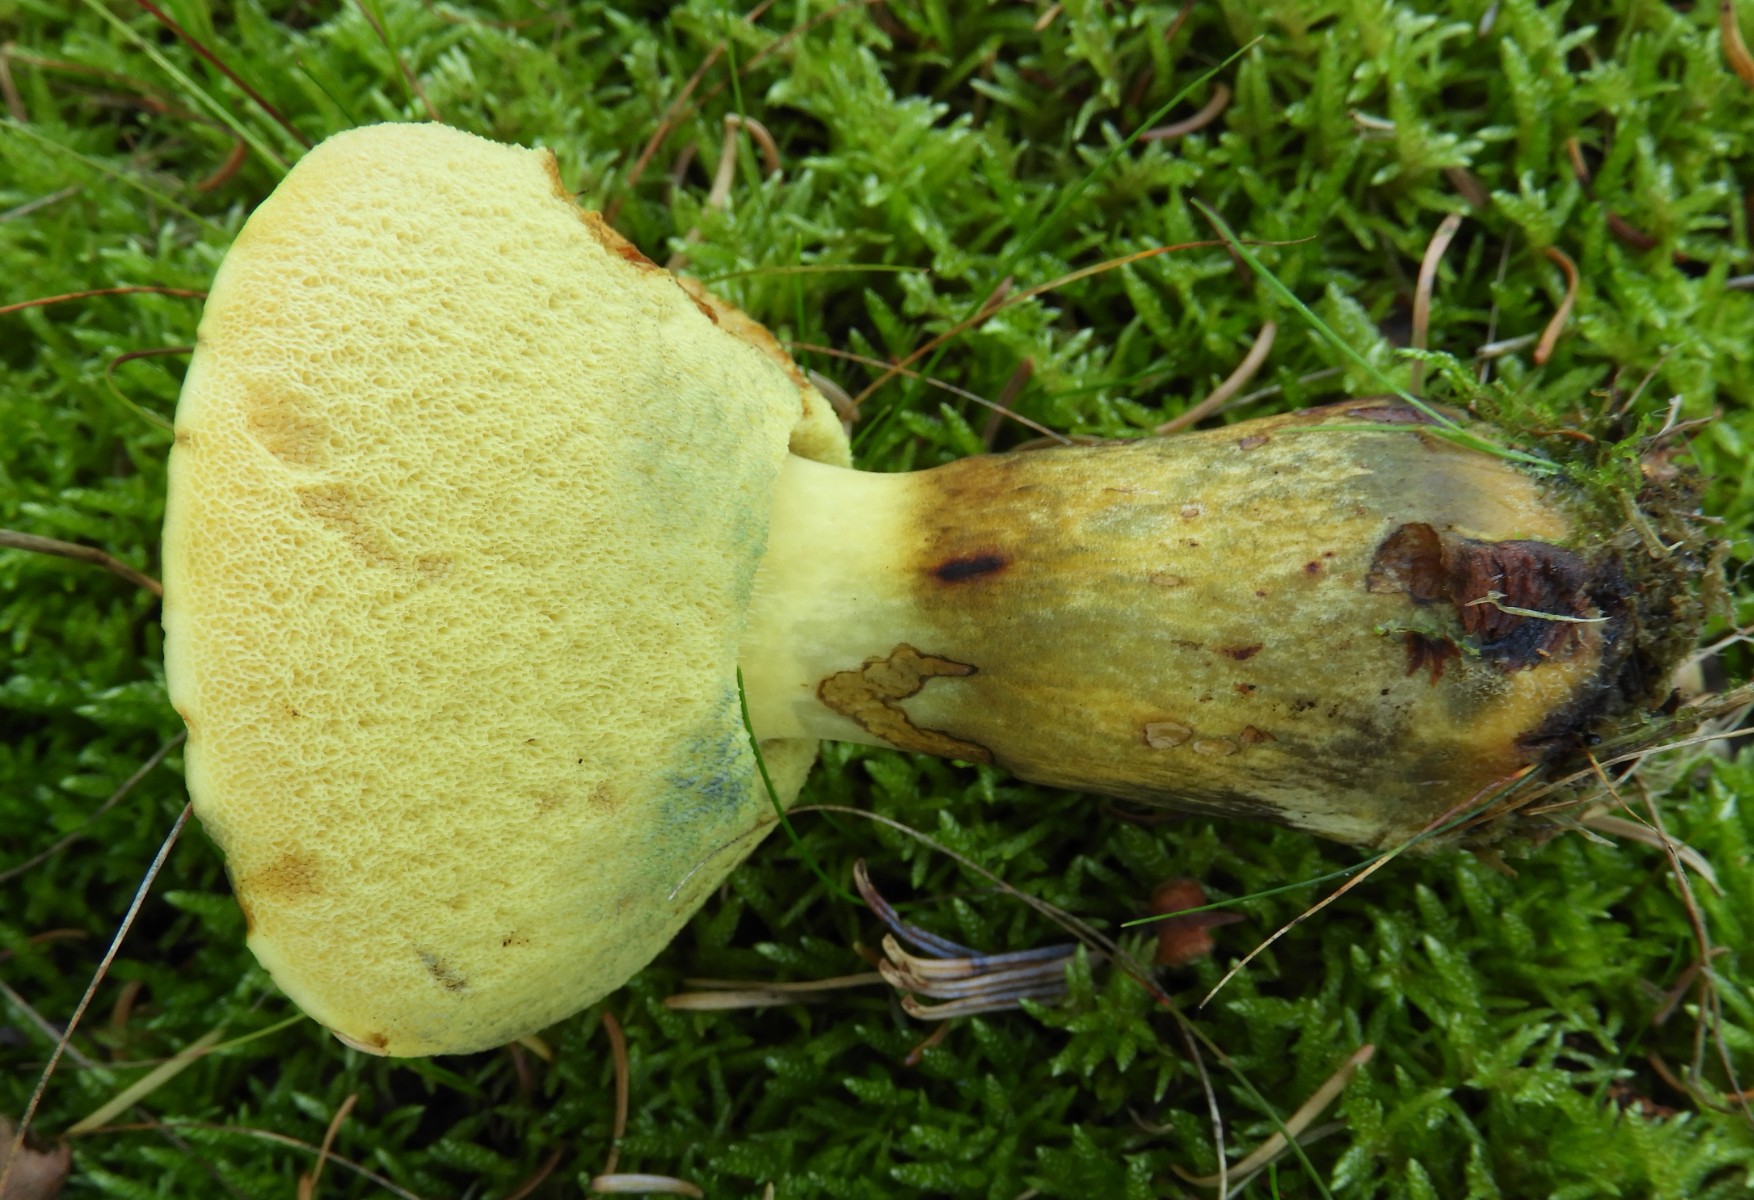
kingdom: Fungi
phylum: Basidiomycota
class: Agaricomycetes
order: Boletales
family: Boletaceae
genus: Neoboletus
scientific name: Neoboletus praestigiator
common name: gul indigorørhat
